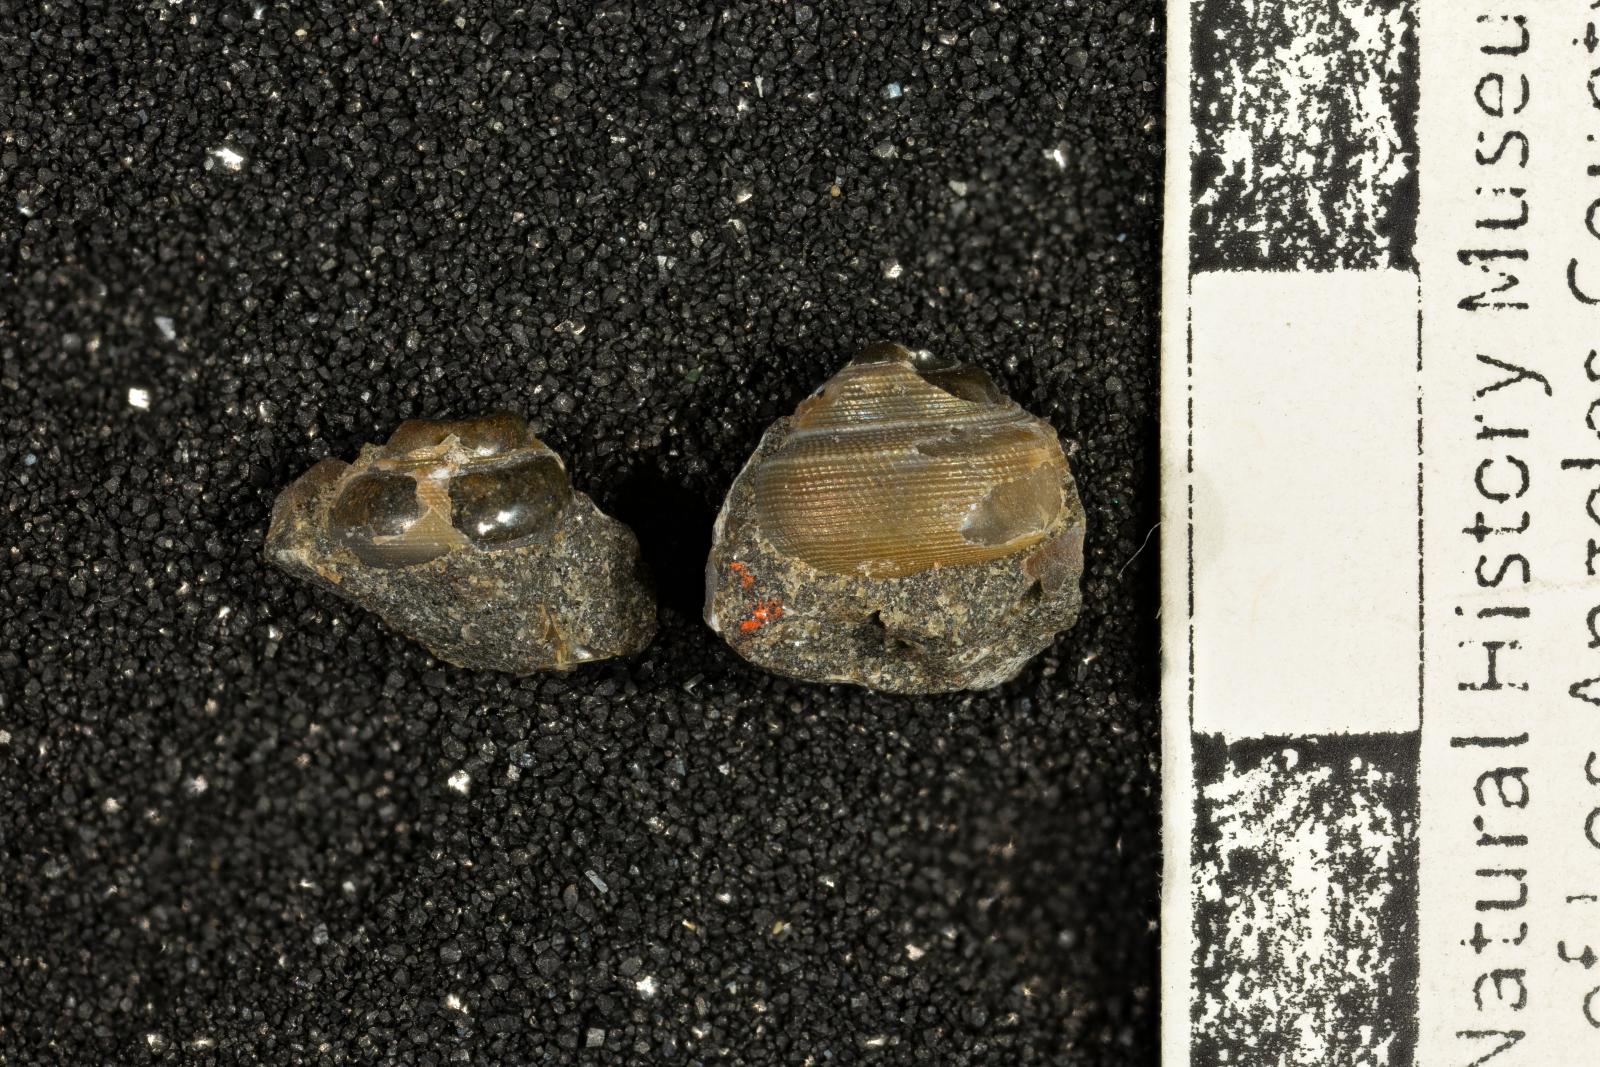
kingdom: Animalia
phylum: Mollusca
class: Bivalvia
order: Ostreida
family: Pteriidae
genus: Atira
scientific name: Atira popenoei
